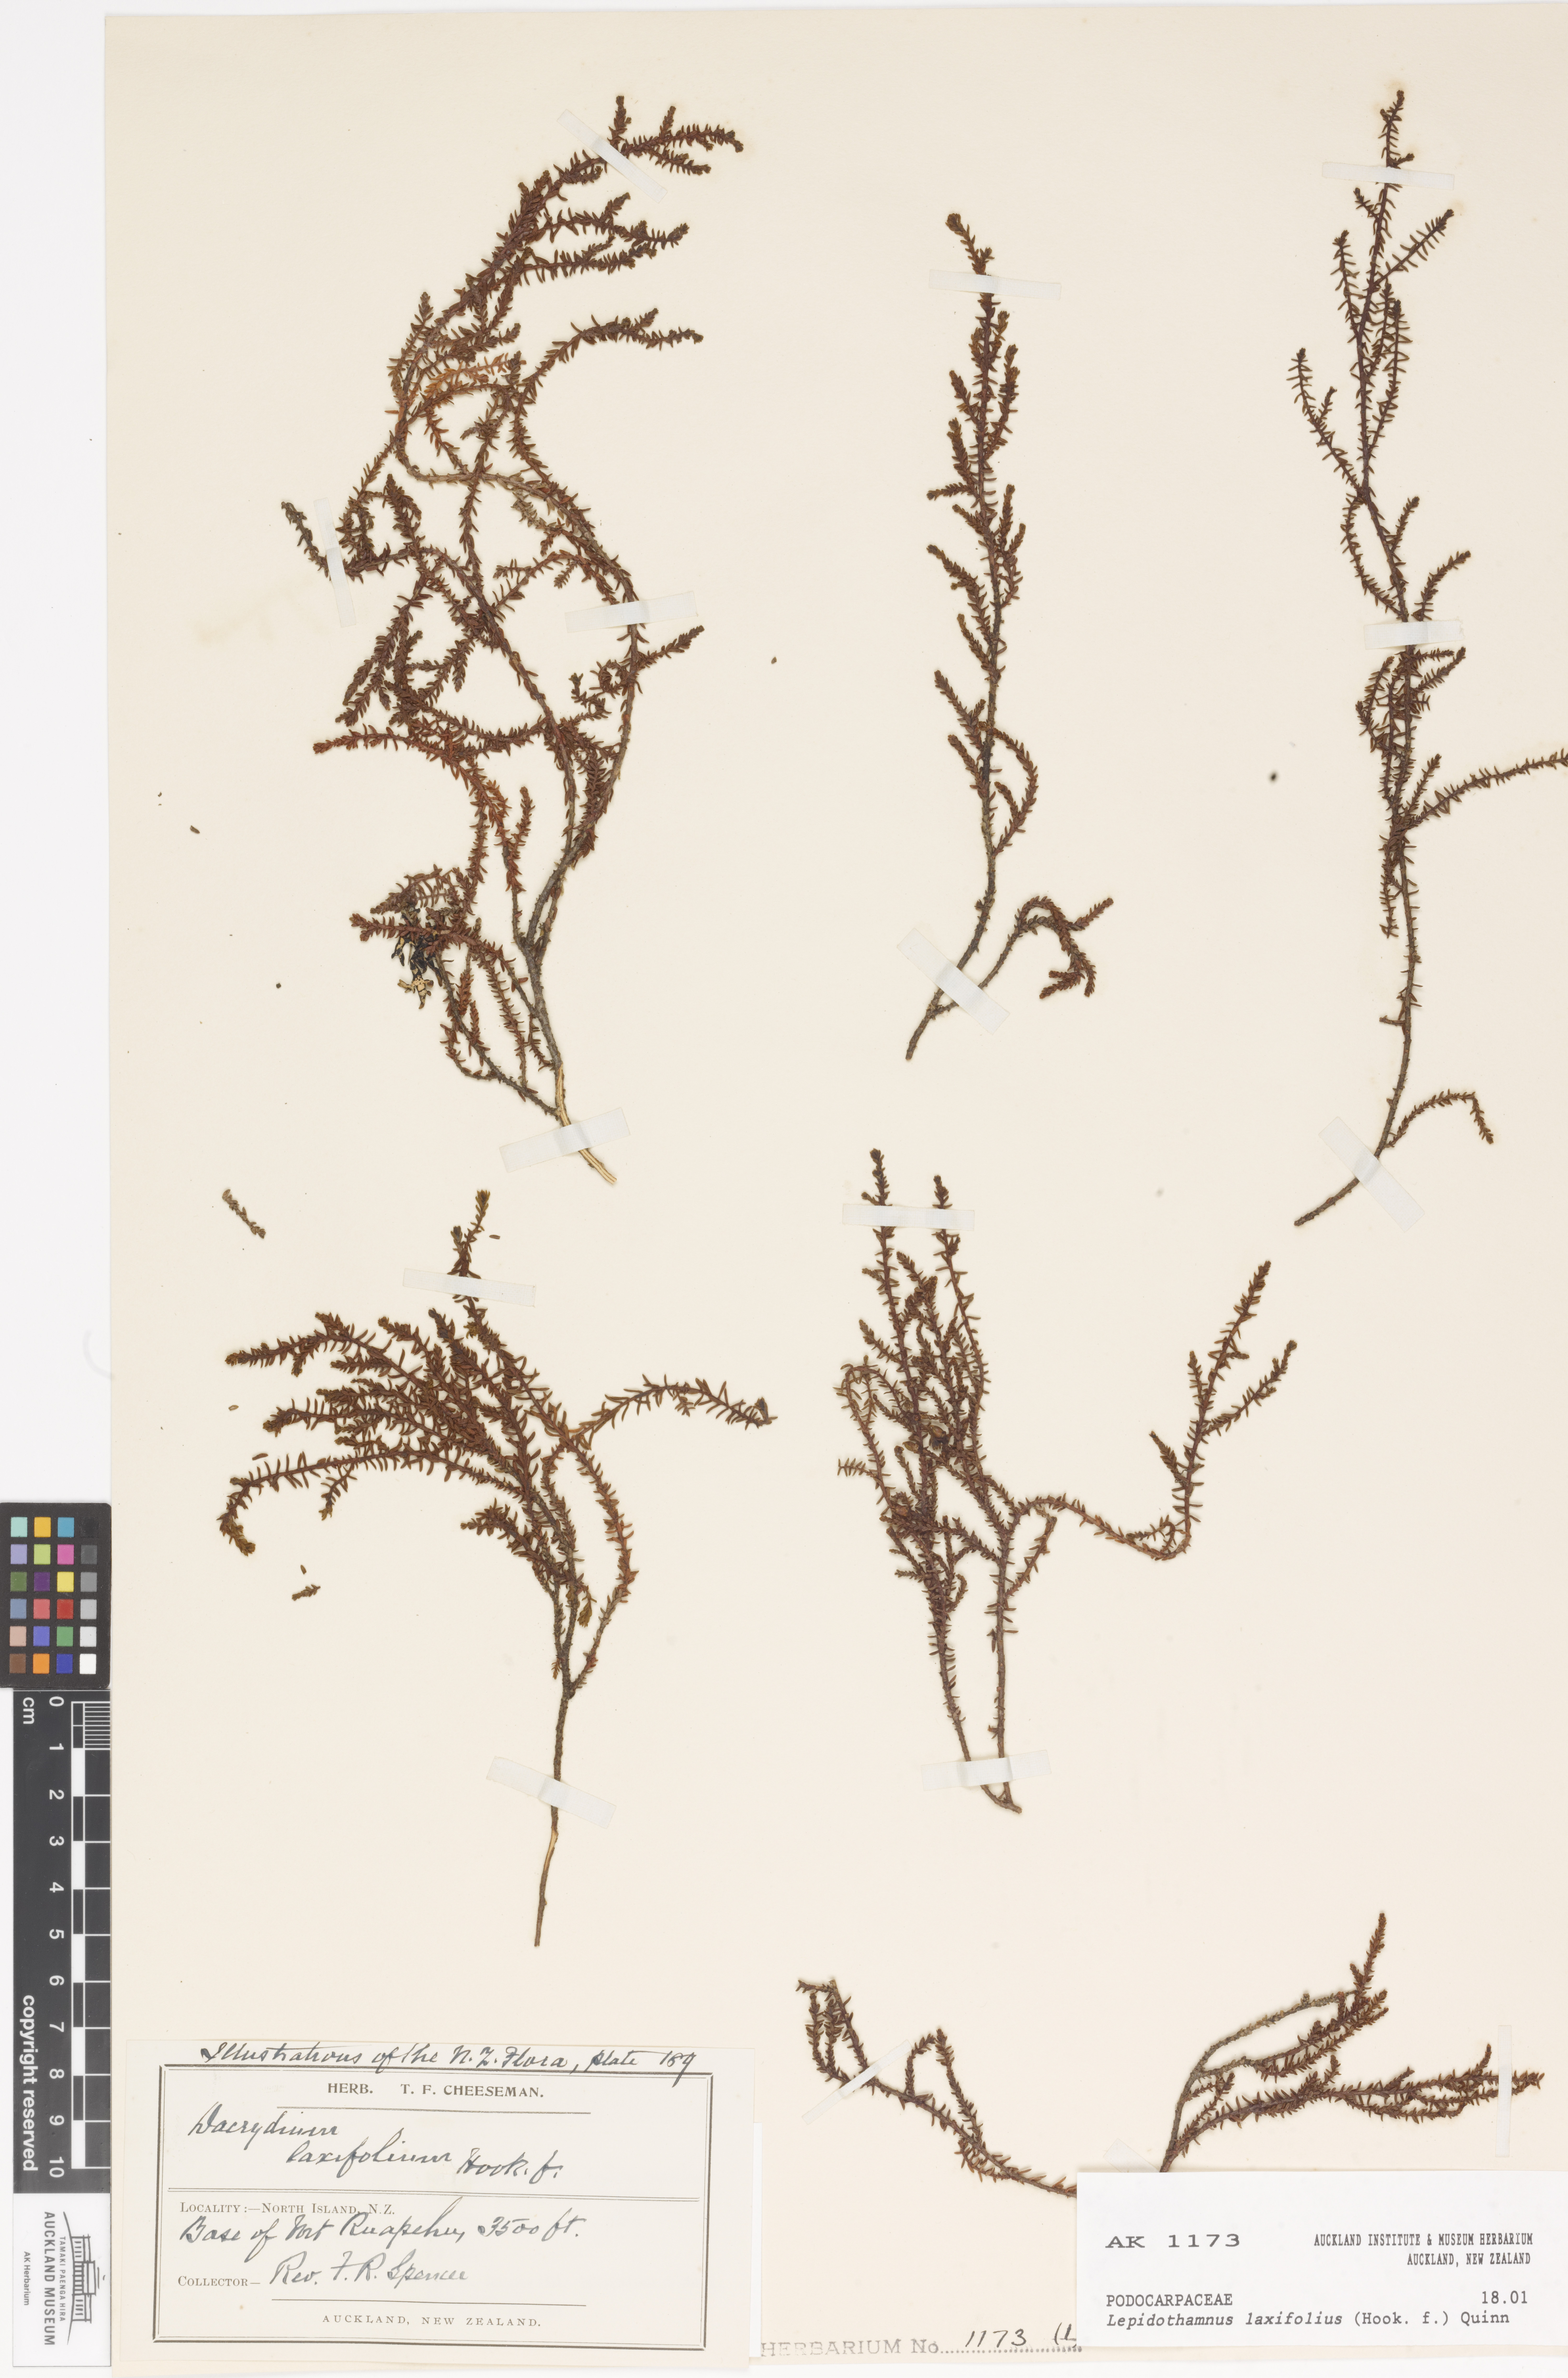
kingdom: Plantae
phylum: Tracheophyta
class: Pinopsida
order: Pinales
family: Podocarpaceae
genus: Lepidothamnus
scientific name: Lepidothamnus laxifolius
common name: Pygmy pine
